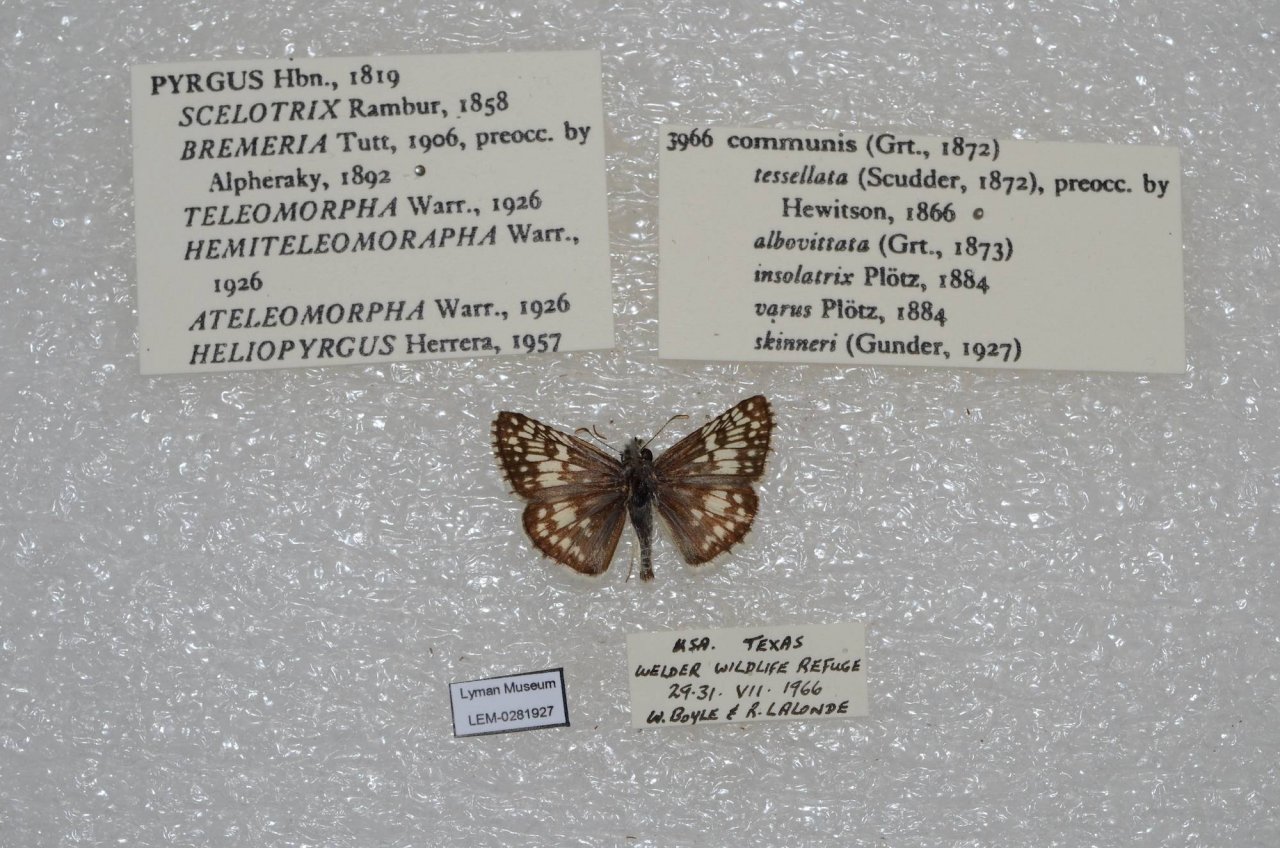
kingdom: Animalia
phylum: Arthropoda
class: Insecta
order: Lepidoptera
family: Hesperiidae
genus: Pyrgus
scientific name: Pyrgus communis
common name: Common Checkered-Skipper
